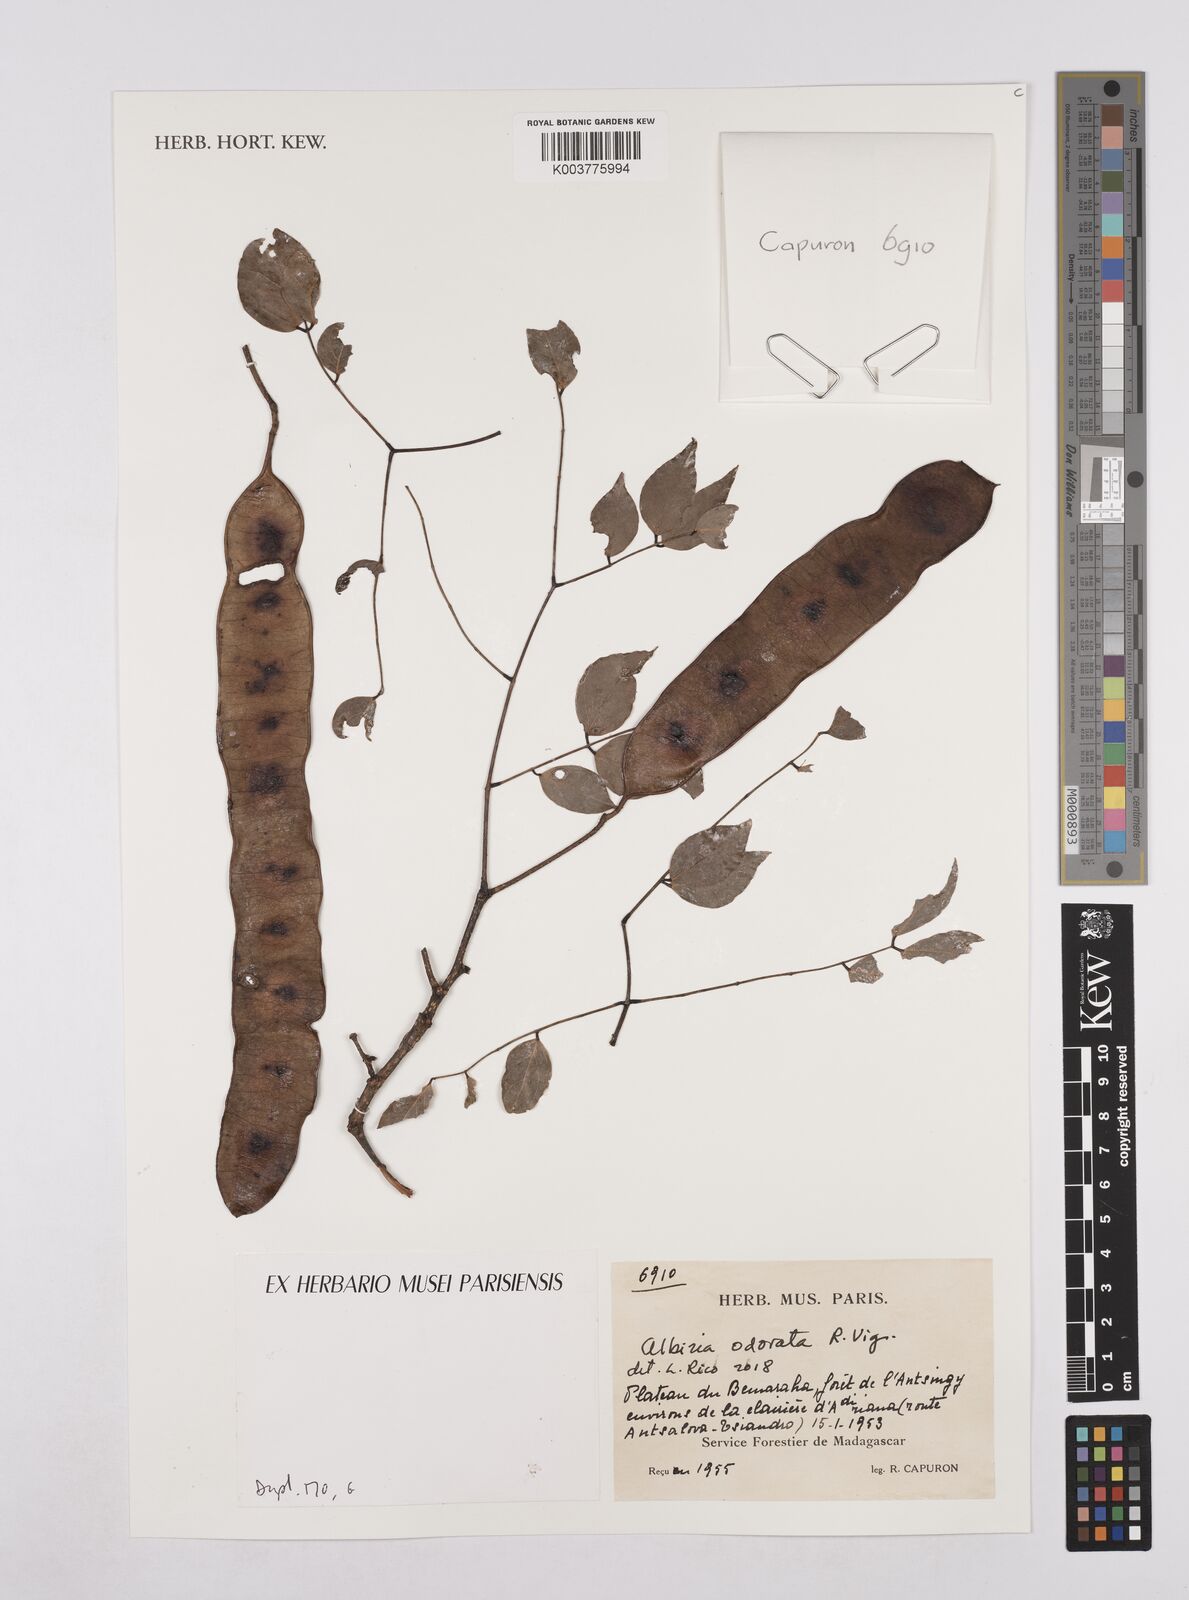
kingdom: Plantae
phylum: Tracheophyta
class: Magnoliopsida
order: Fabales
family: Fabaceae
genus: Albizia
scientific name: Albizia odorata
